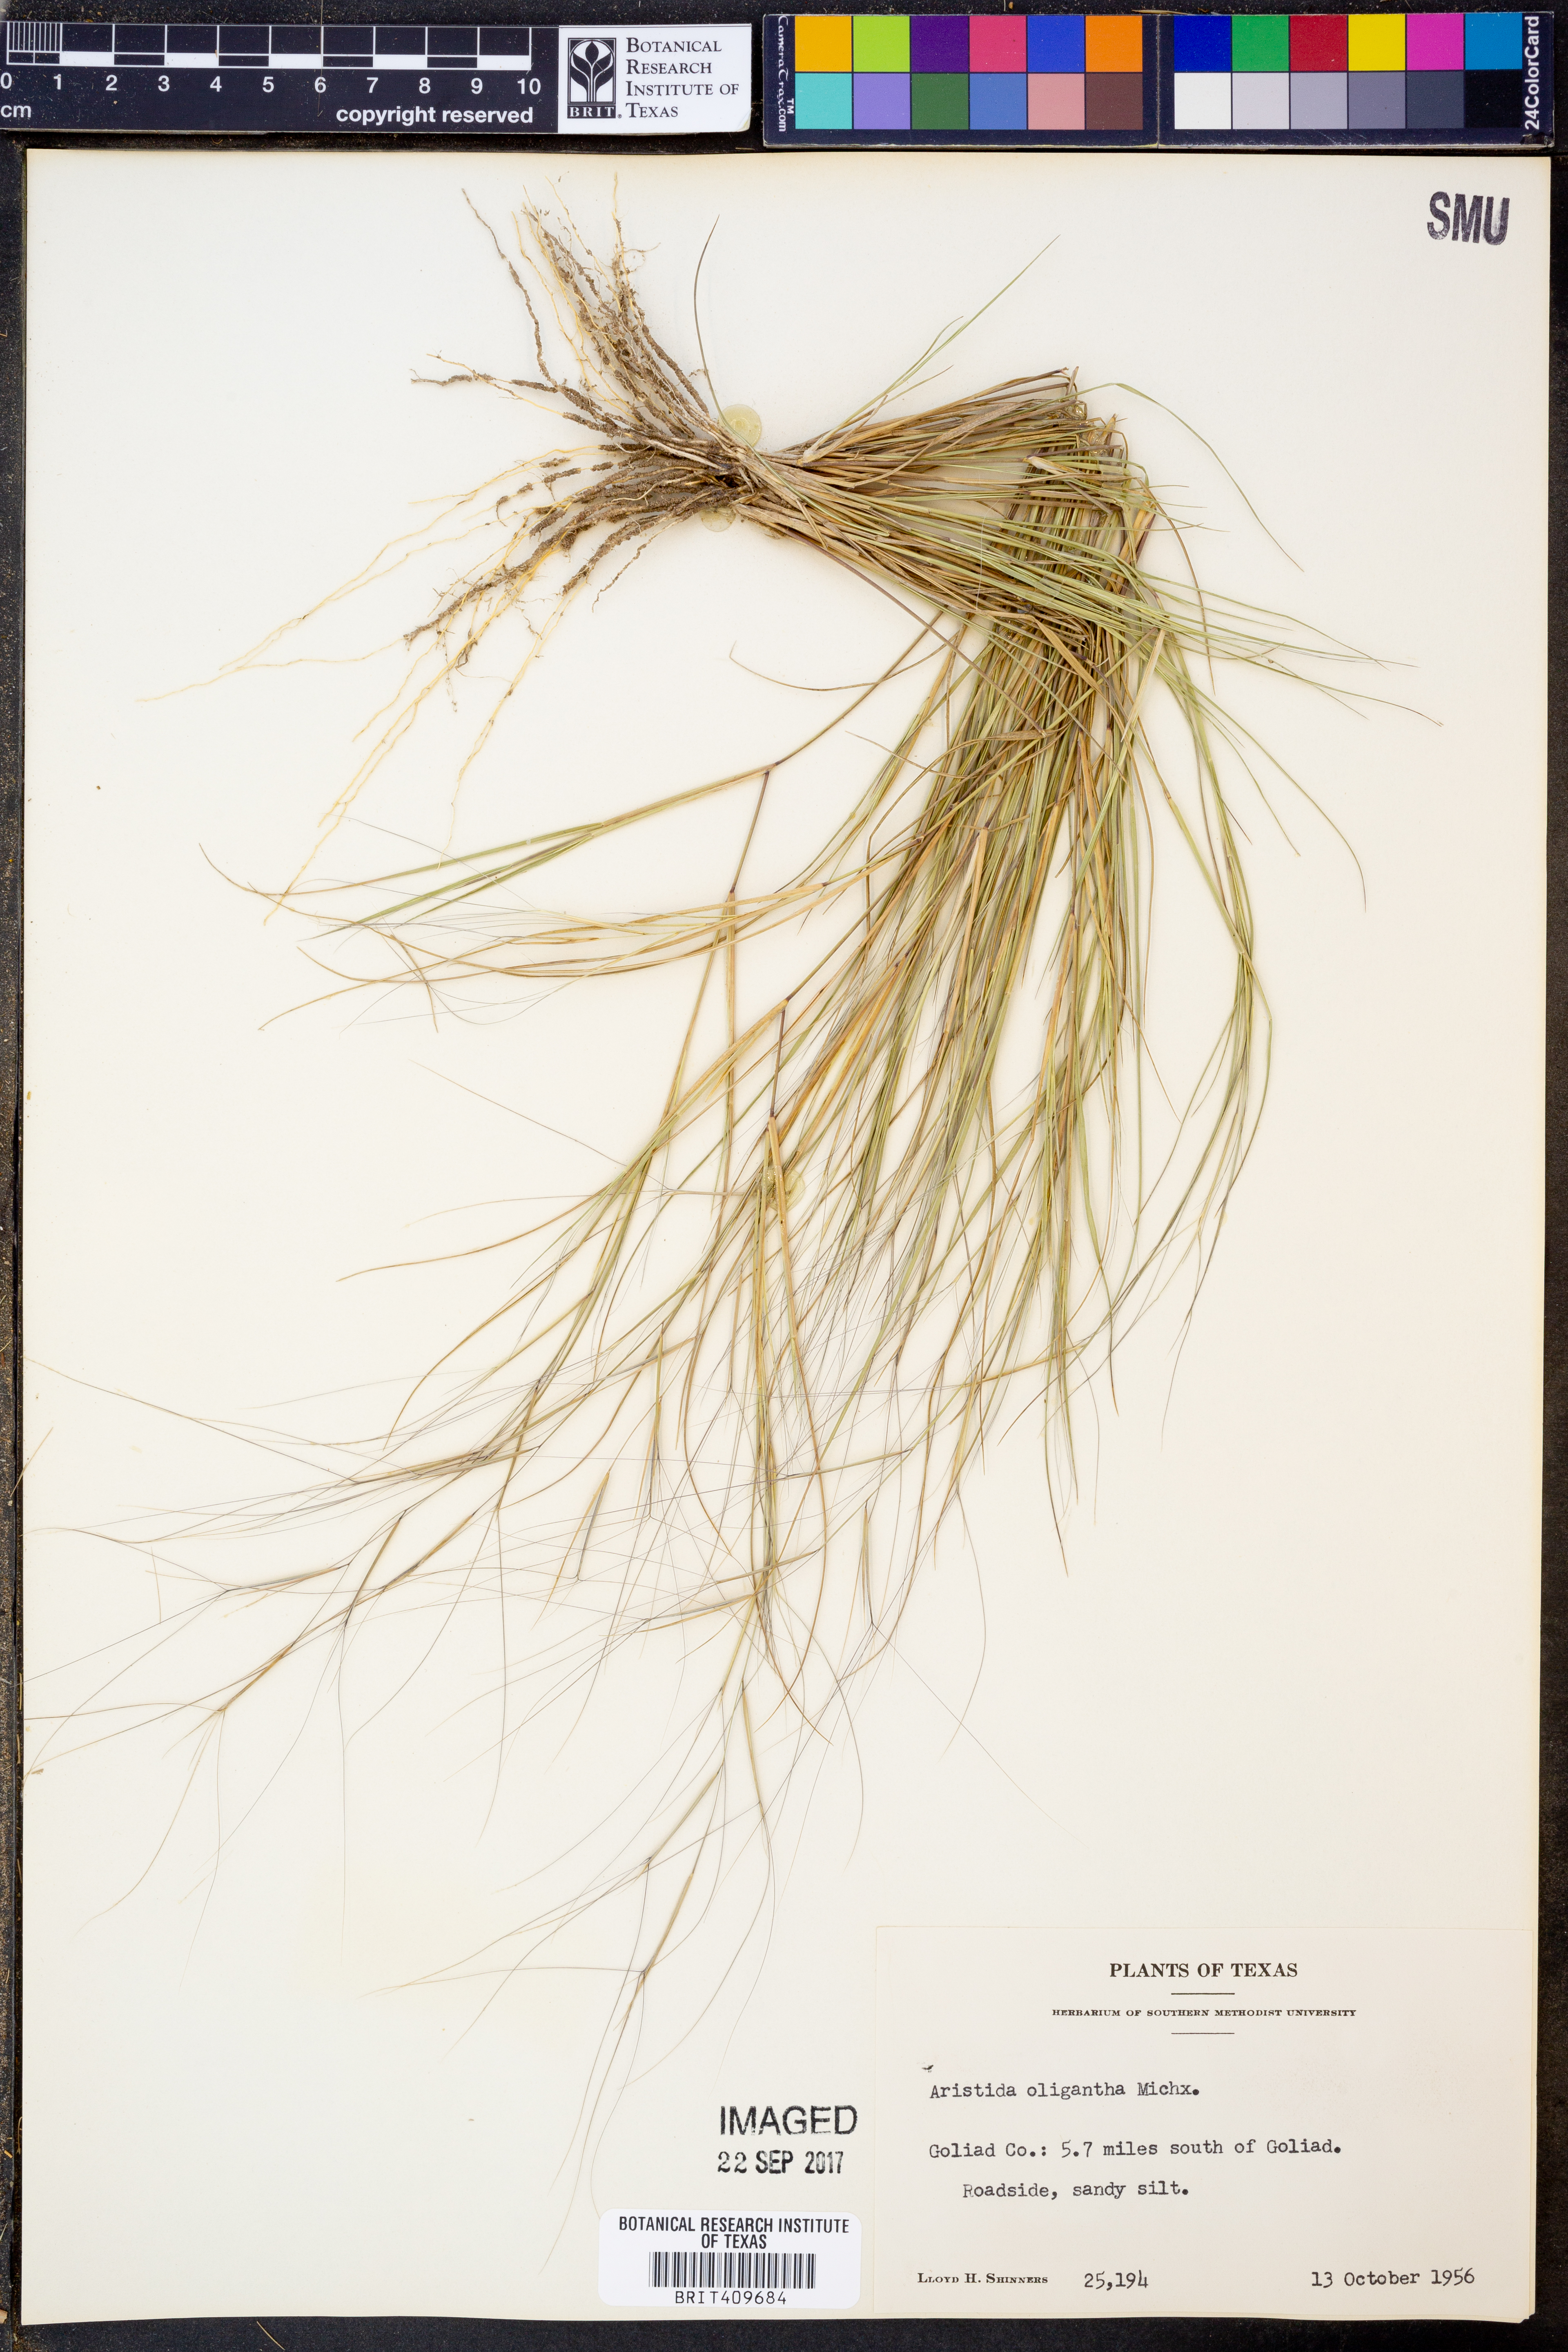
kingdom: Plantae
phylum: Tracheophyta
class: Liliopsida
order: Poales
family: Poaceae
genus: Aristida
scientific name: Aristida oligantha
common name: Few-flowered aristida
